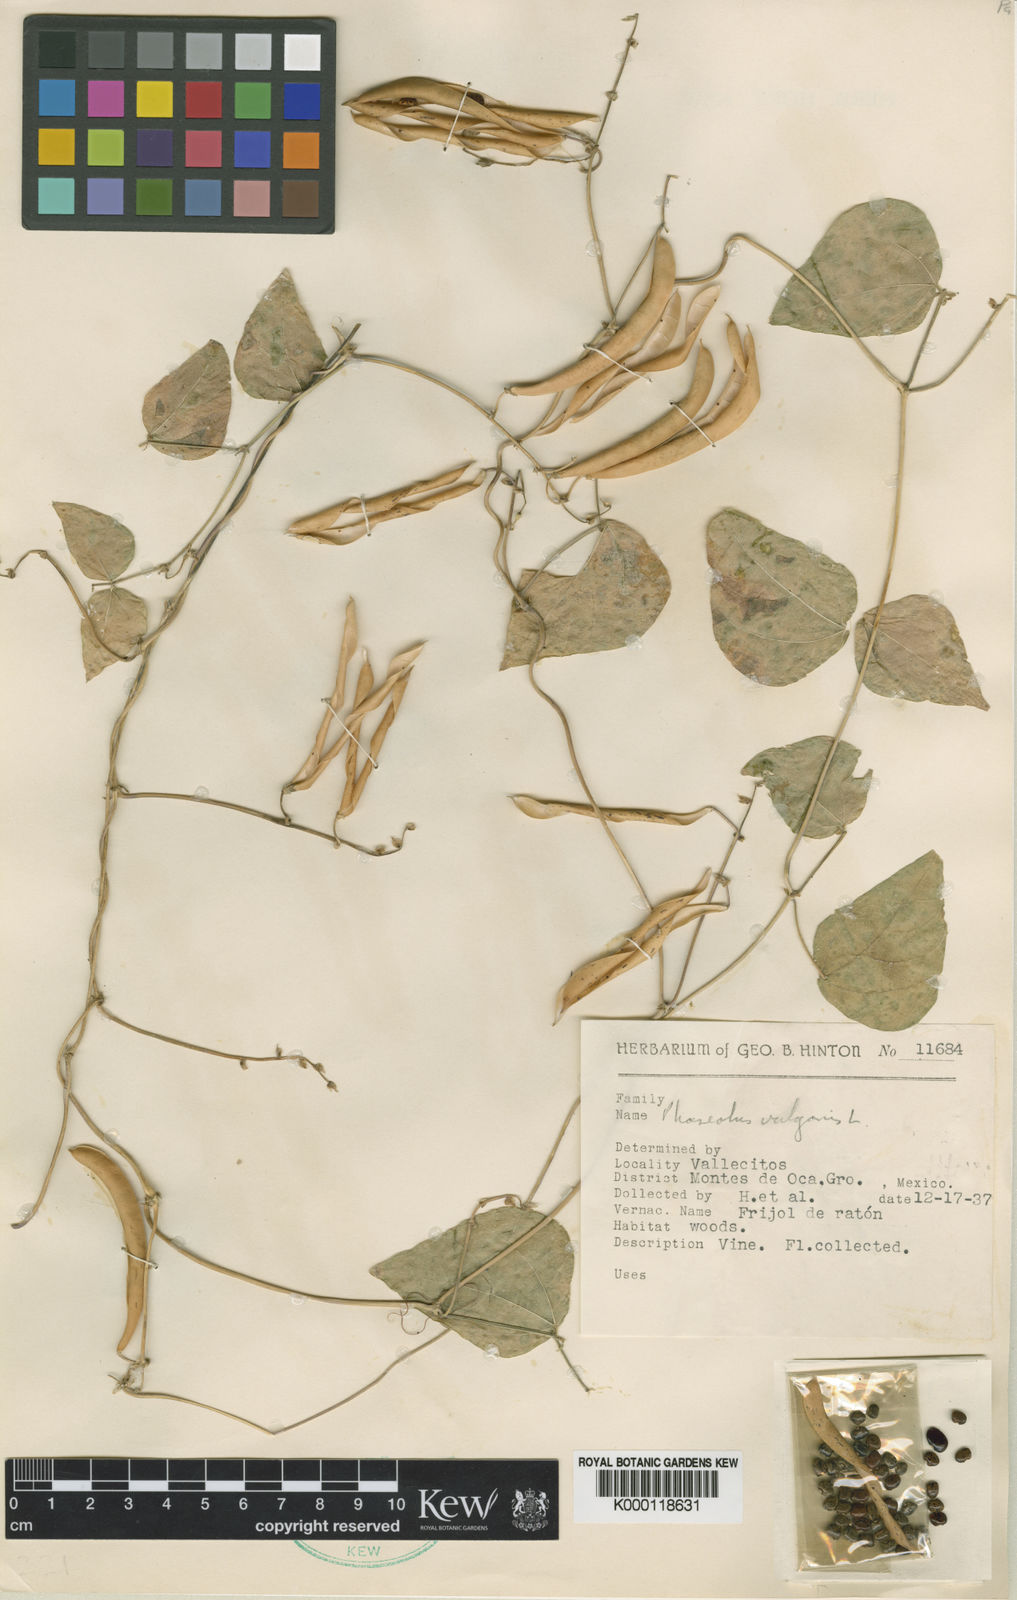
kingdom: Plantae
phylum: Tracheophyta
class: Magnoliopsida
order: Fabales
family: Fabaceae
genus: Phaseolus
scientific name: Phaseolus vulgaris
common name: Bean
